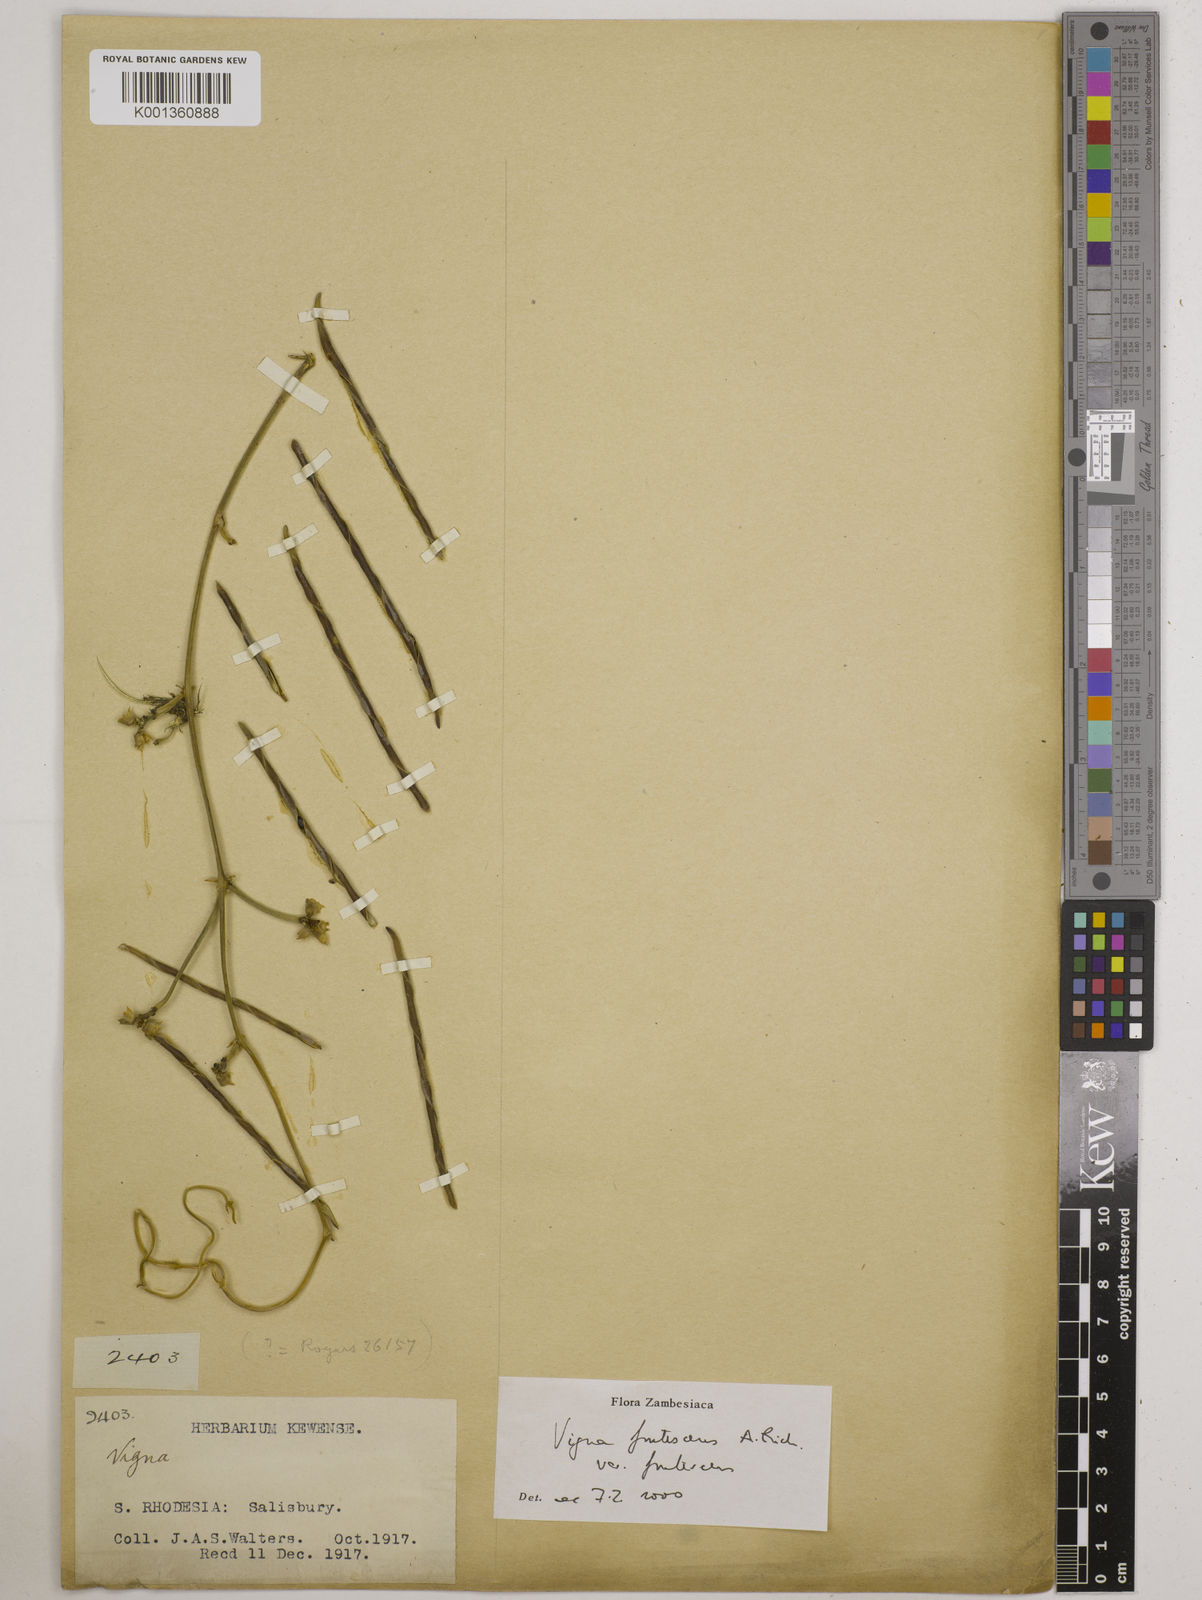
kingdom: Plantae
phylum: Tracheophyta
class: Magnoliopsida
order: Fabales
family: Fabaceae
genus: Vigna
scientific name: Vigna
